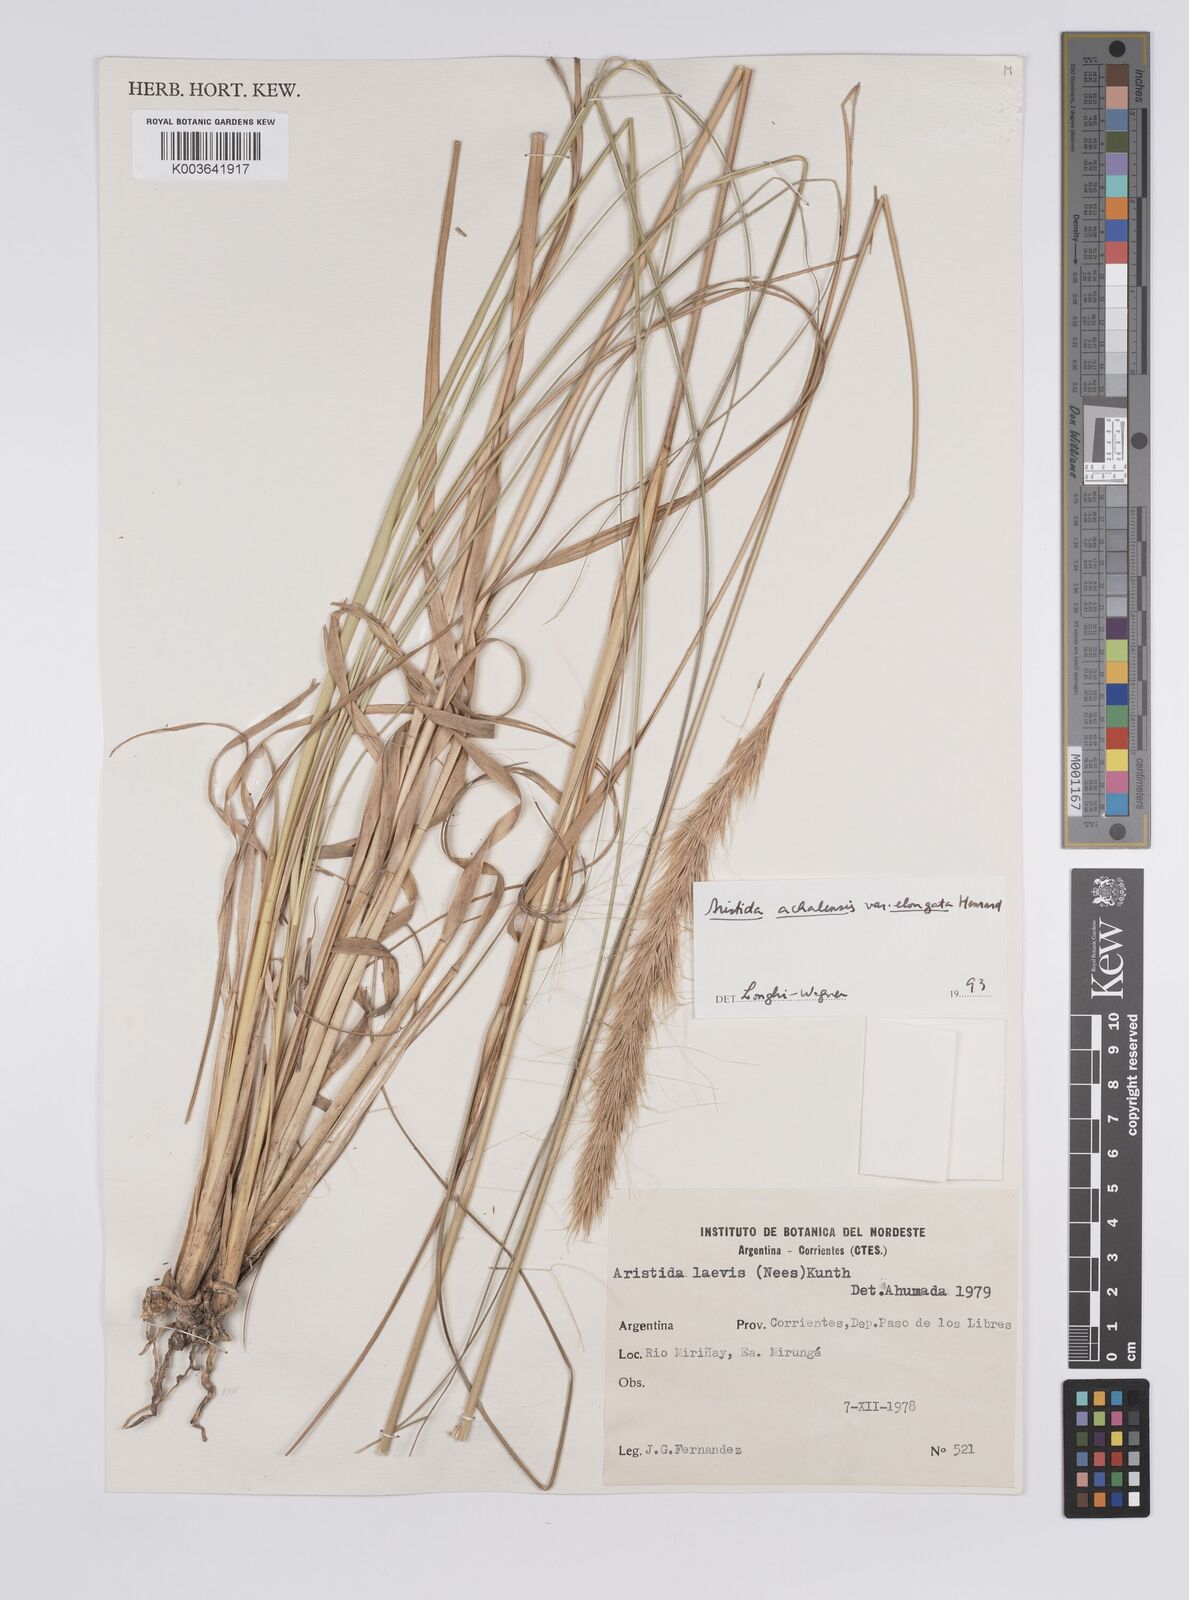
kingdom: Plantae
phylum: Tracheophyta
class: Liliopsida
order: Poales
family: Poaceae
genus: Aristida
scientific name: Aristida achalensis
